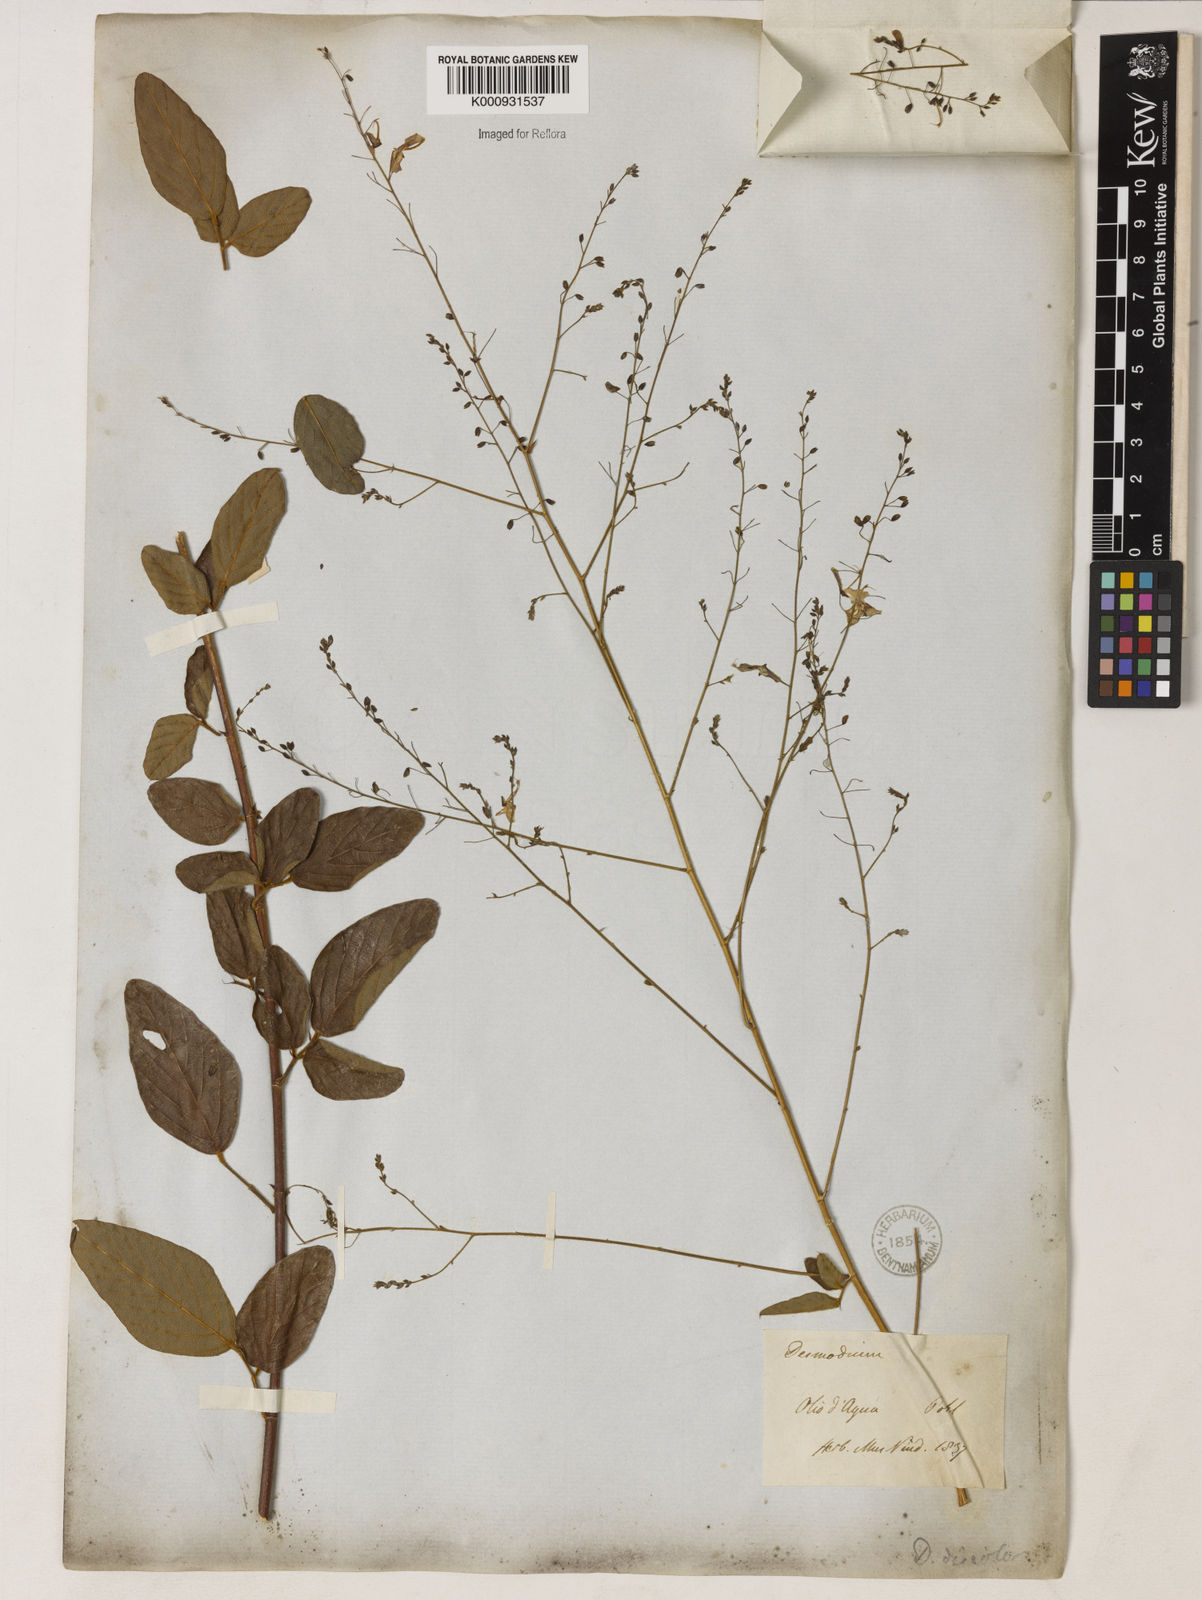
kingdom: Plantae
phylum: Tracheophyta
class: Magnoliopsida
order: Fabales
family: Fabaceae
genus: Desmodium
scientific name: Desmodium subsecundum
